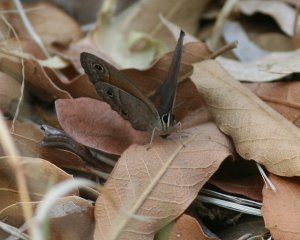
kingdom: Animalia
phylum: Arthropoda
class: Insecta
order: Lepidoptera
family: Nymphalidae
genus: Euptychia
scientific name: Euptychia rubricata
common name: Red Satyr
